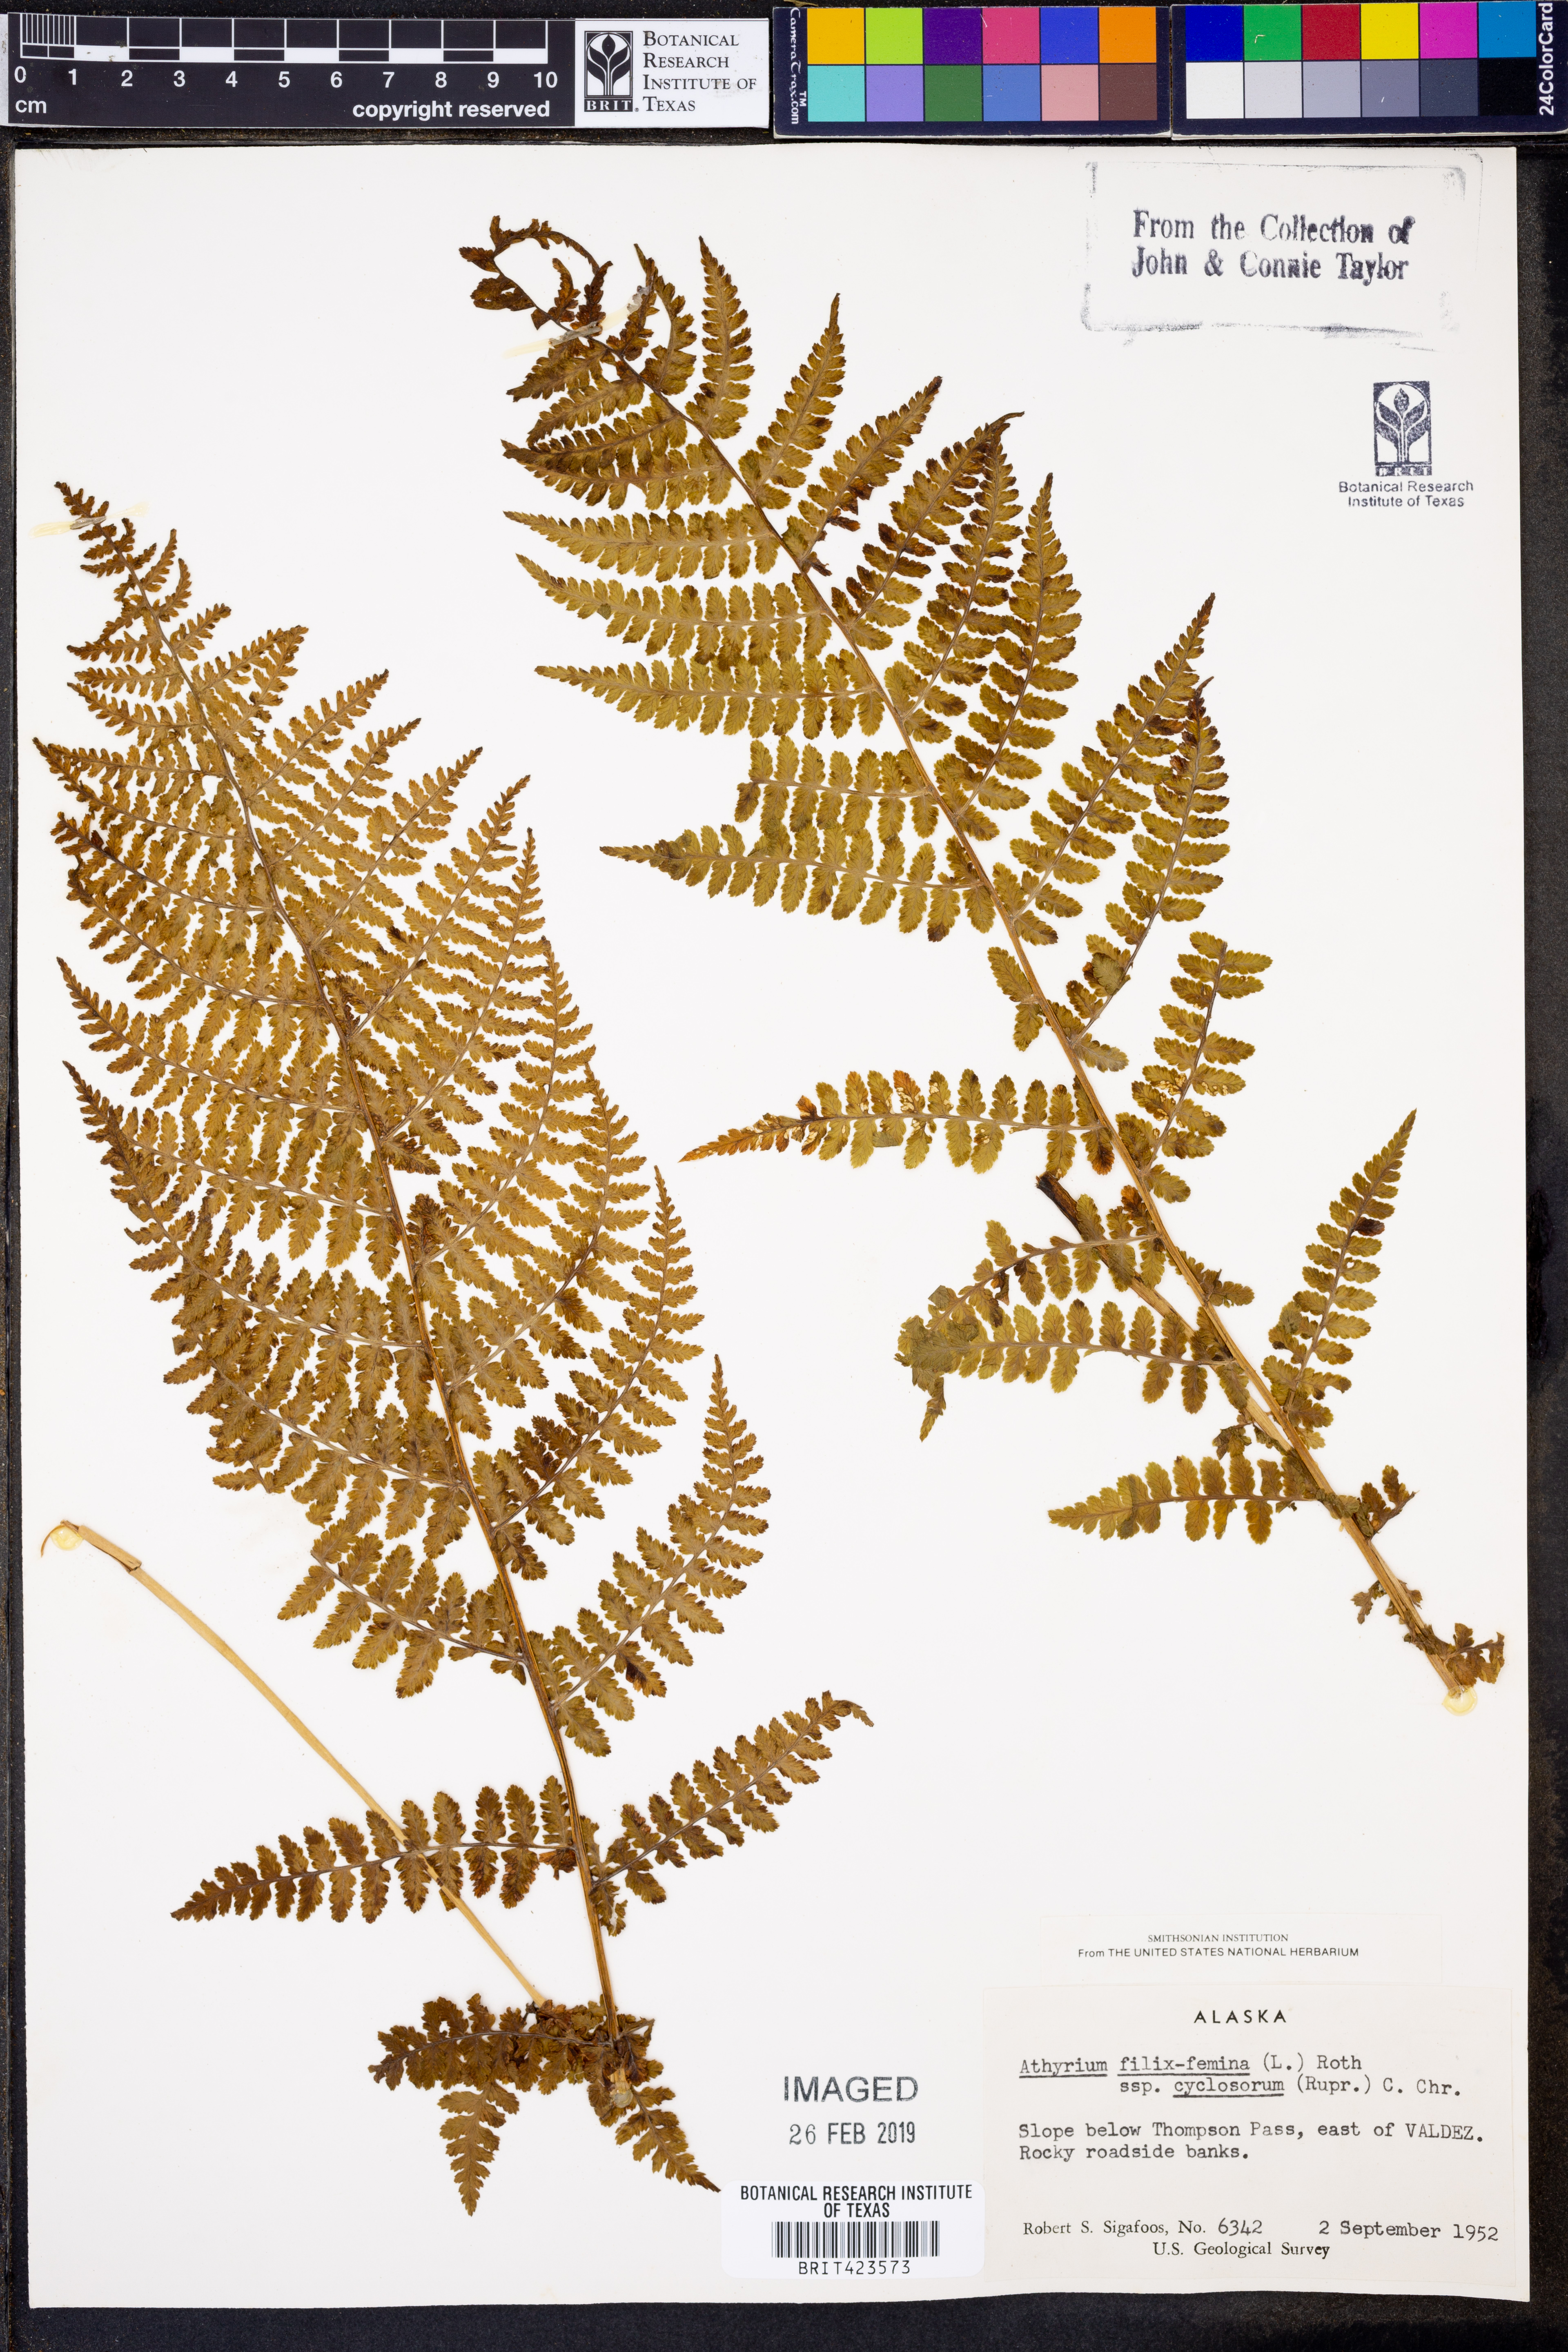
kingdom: Plantae
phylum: Tracheophyta
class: Polypodiopsida
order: Polypodiales
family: Athyriaceae
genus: Athyrium
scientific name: Athyrium cyclosorum
